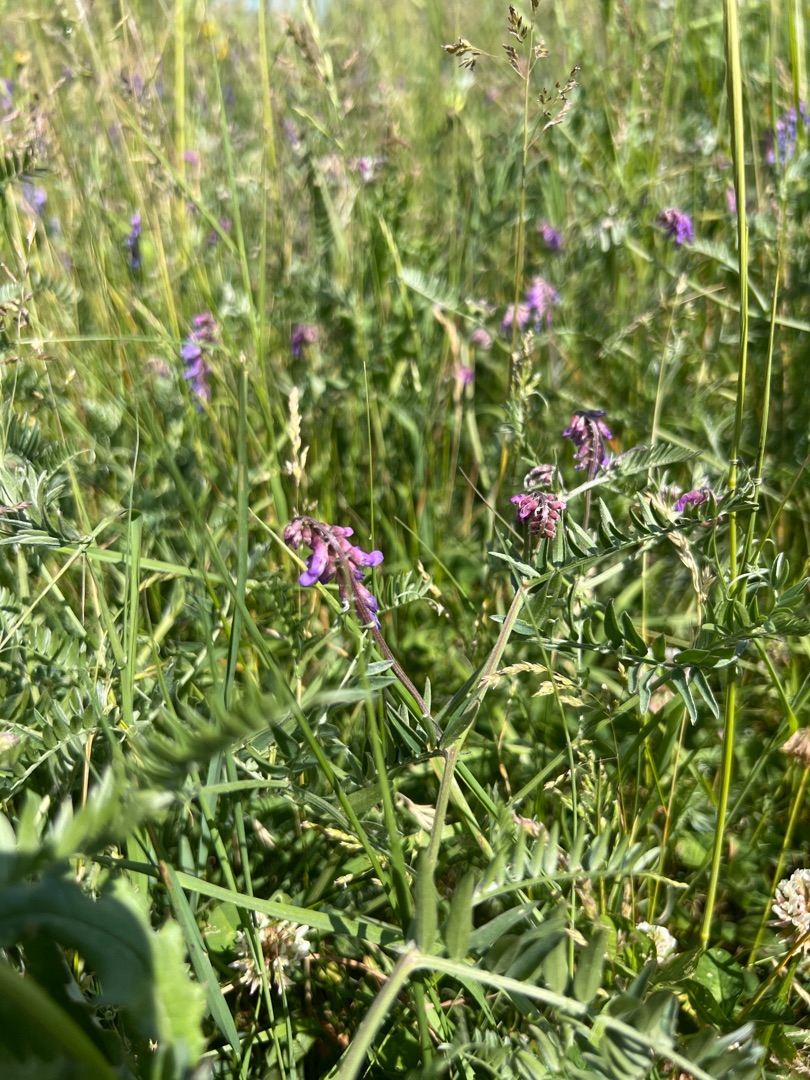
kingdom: Plantae
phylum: Tracheophyta
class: Magnoliopsida
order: Fabales
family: Fabaceae
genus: Vicia
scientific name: Vicia cracca
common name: Muse-vikke
